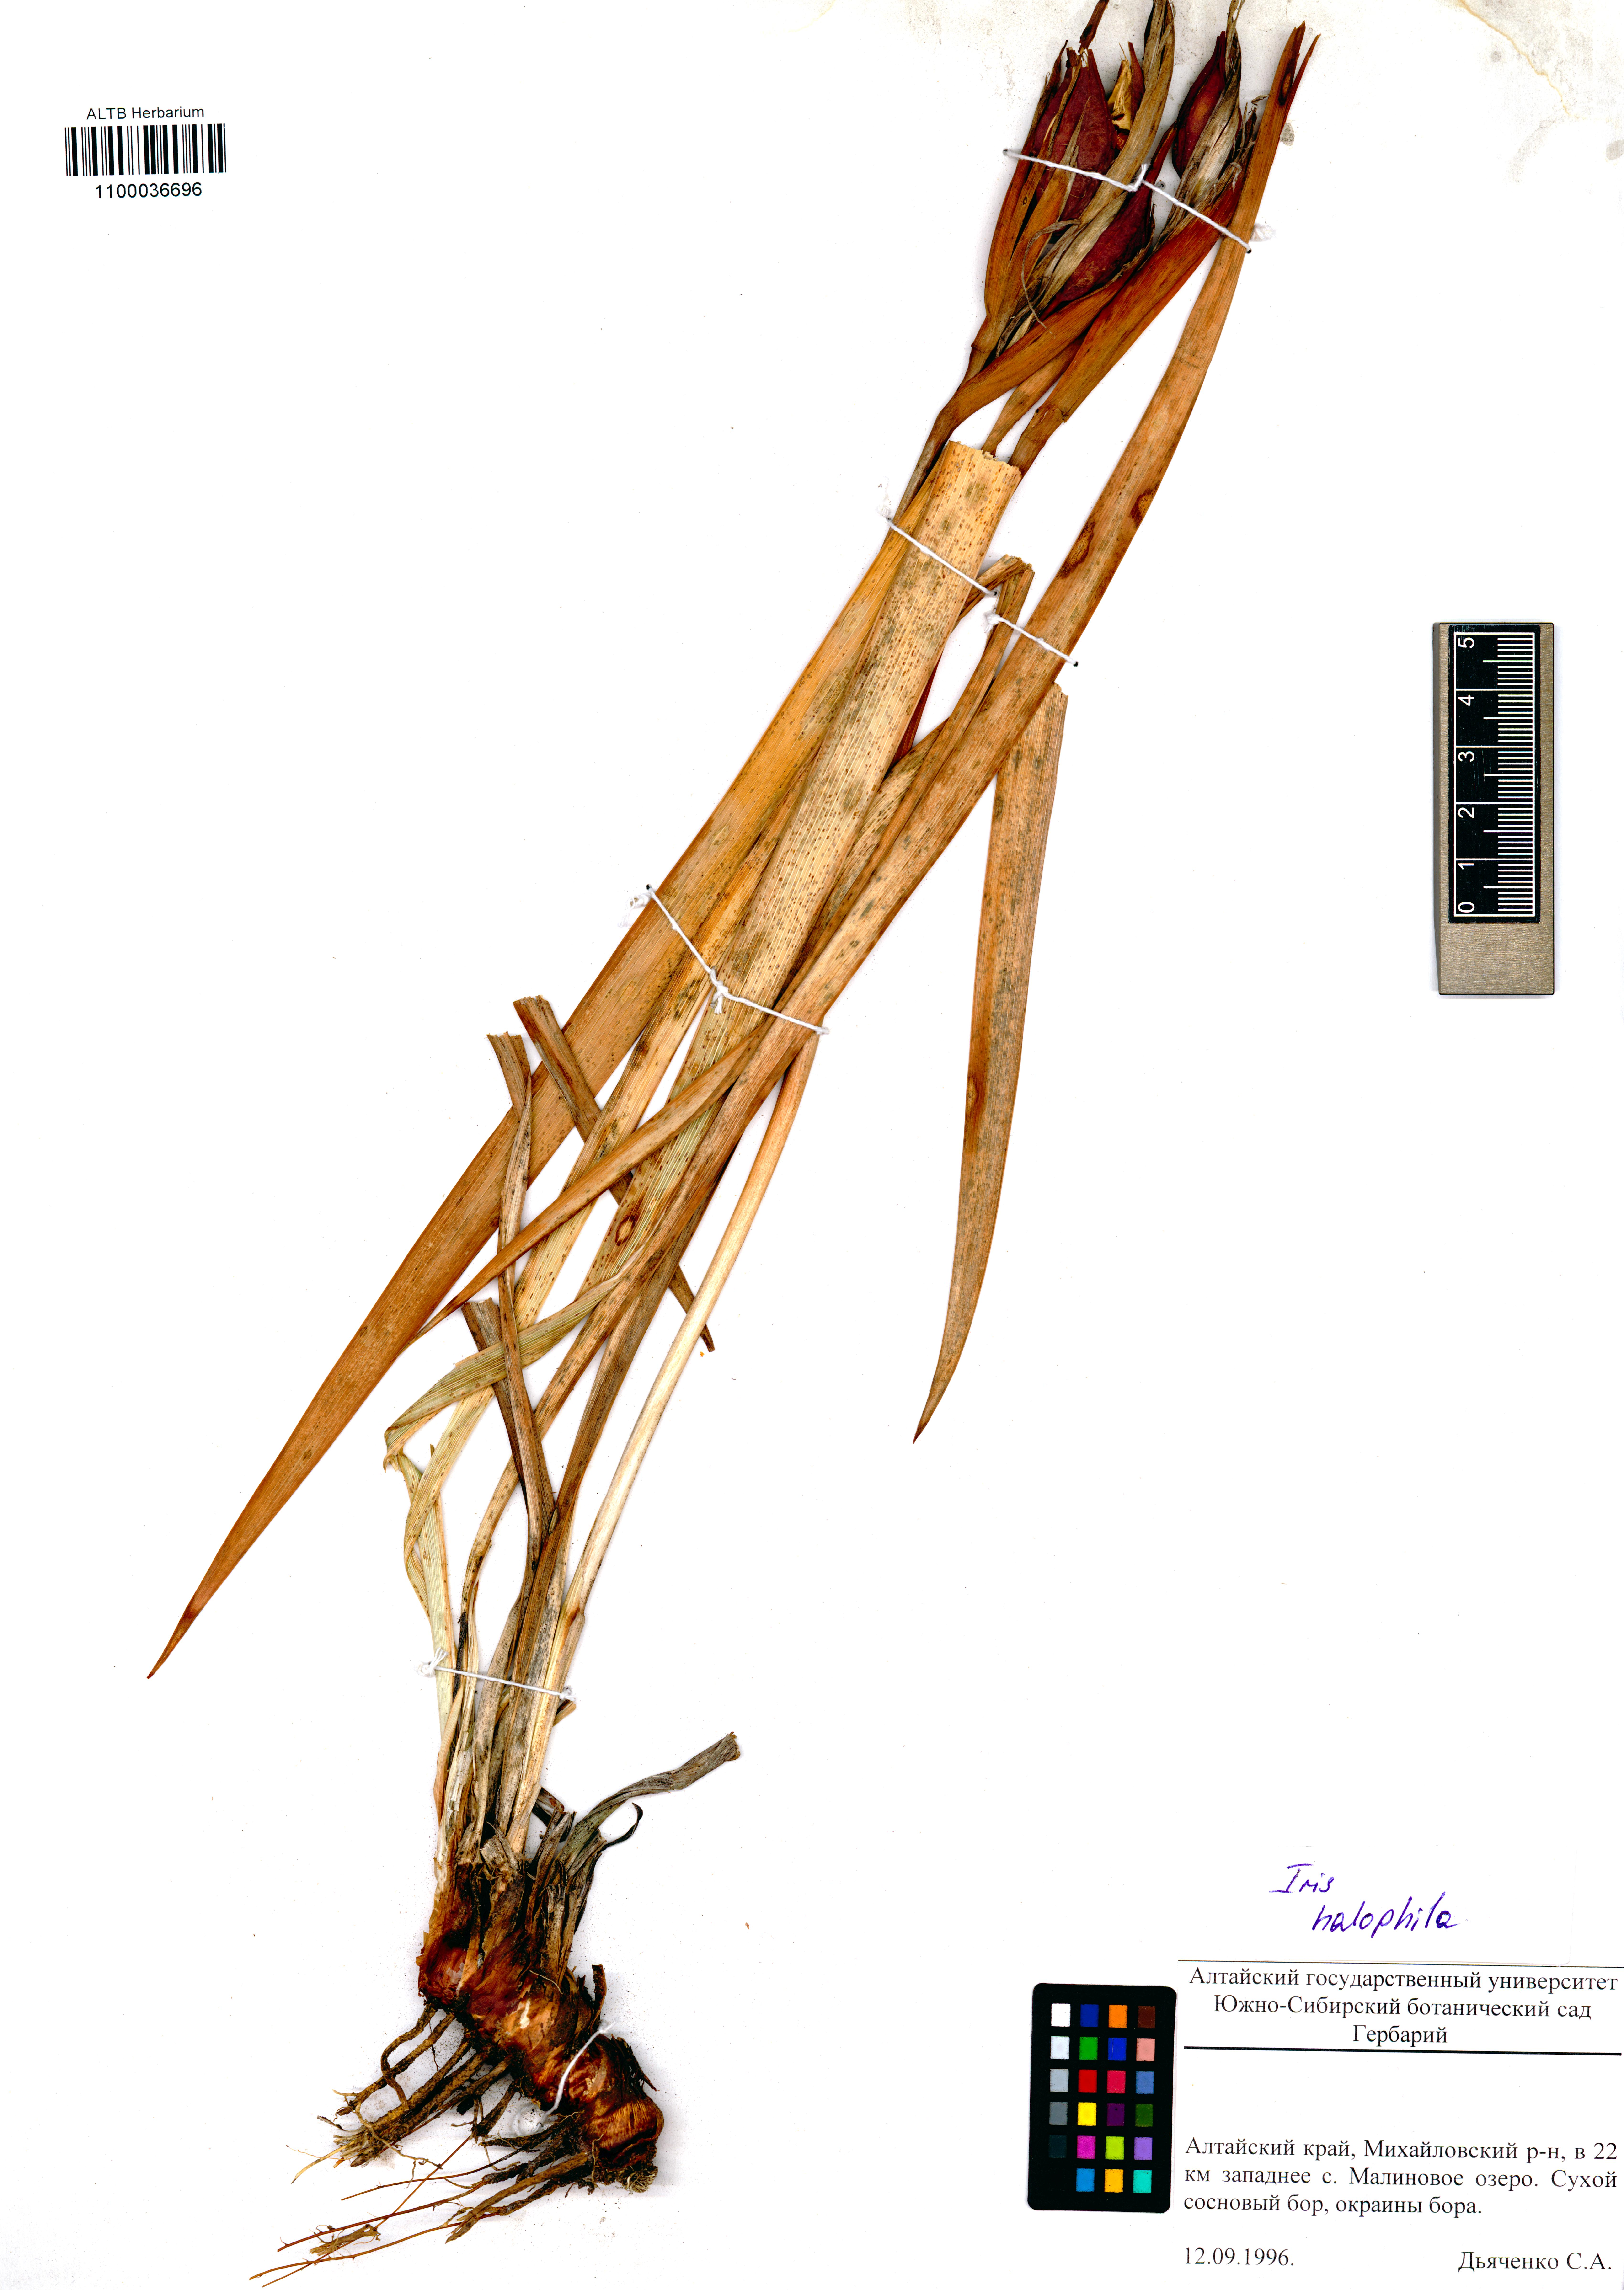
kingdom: Plantae
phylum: Tracheophyta
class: Liliopsida
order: Asparagales
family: Iridaceae
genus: Iris
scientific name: Iris halophila
